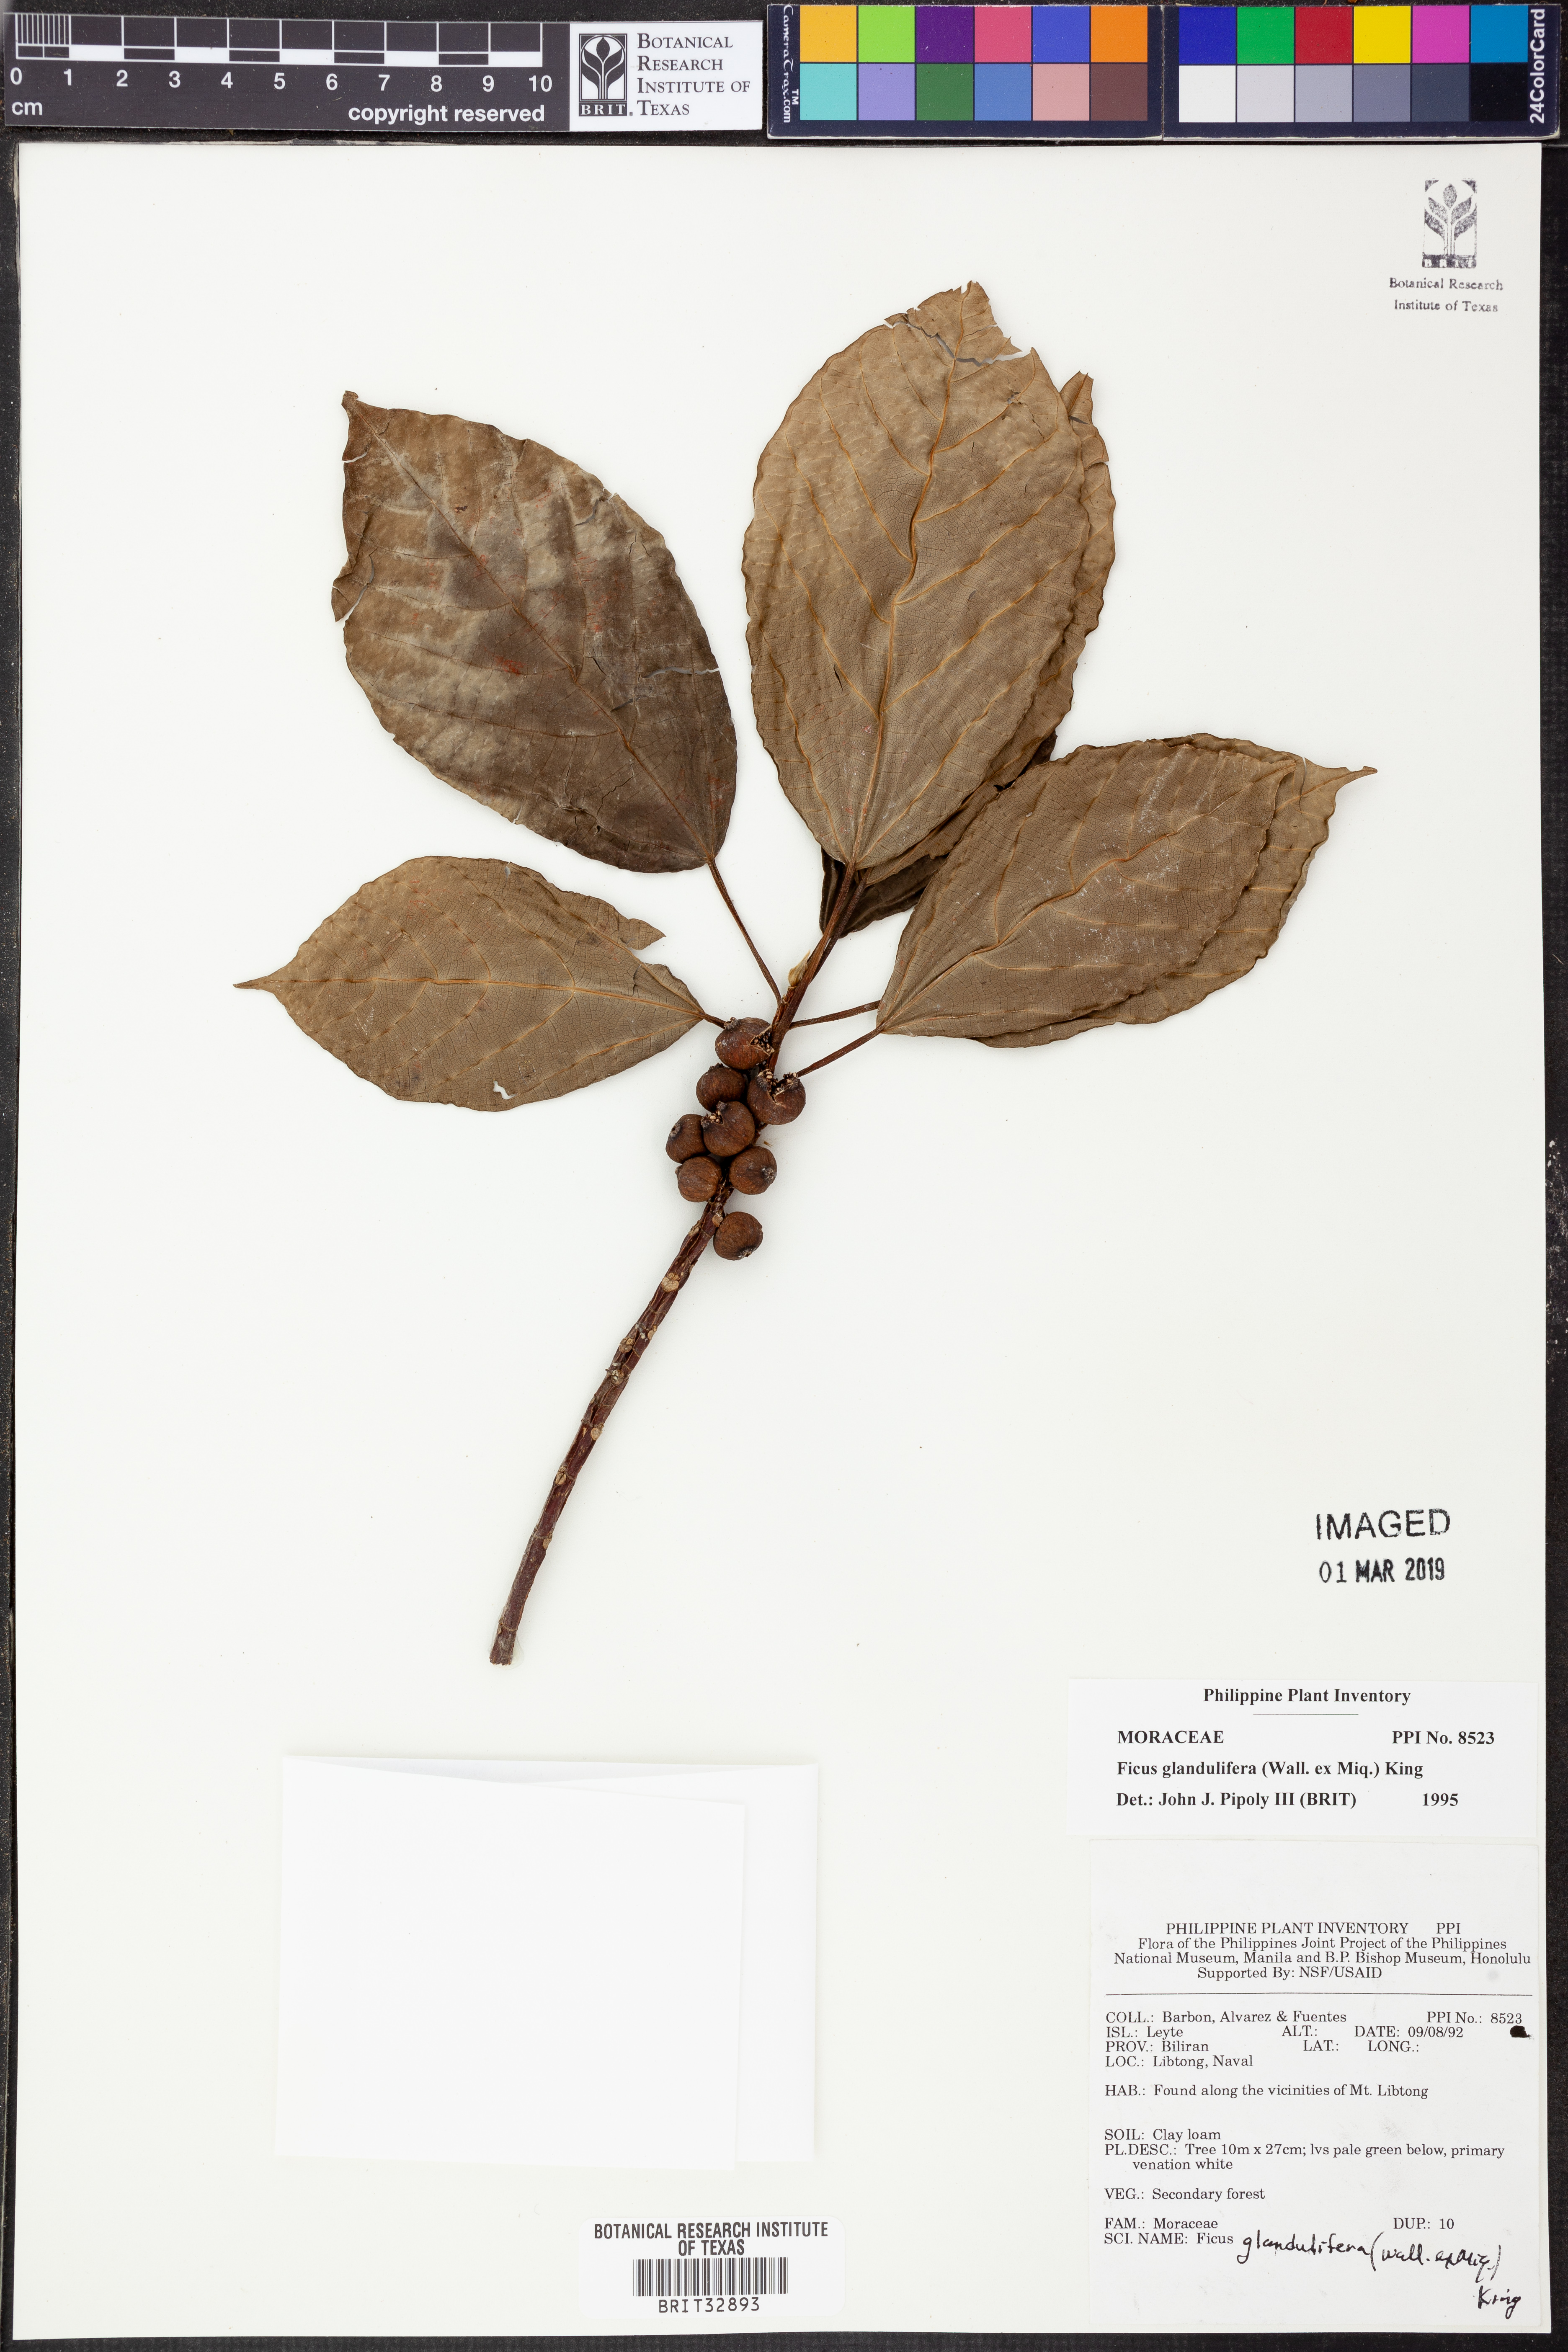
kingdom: Plantae
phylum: Tracheophyta
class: Magnoliopsida
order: Rosales
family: Moraceae
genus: Ficus
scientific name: Ficus glandulifera
